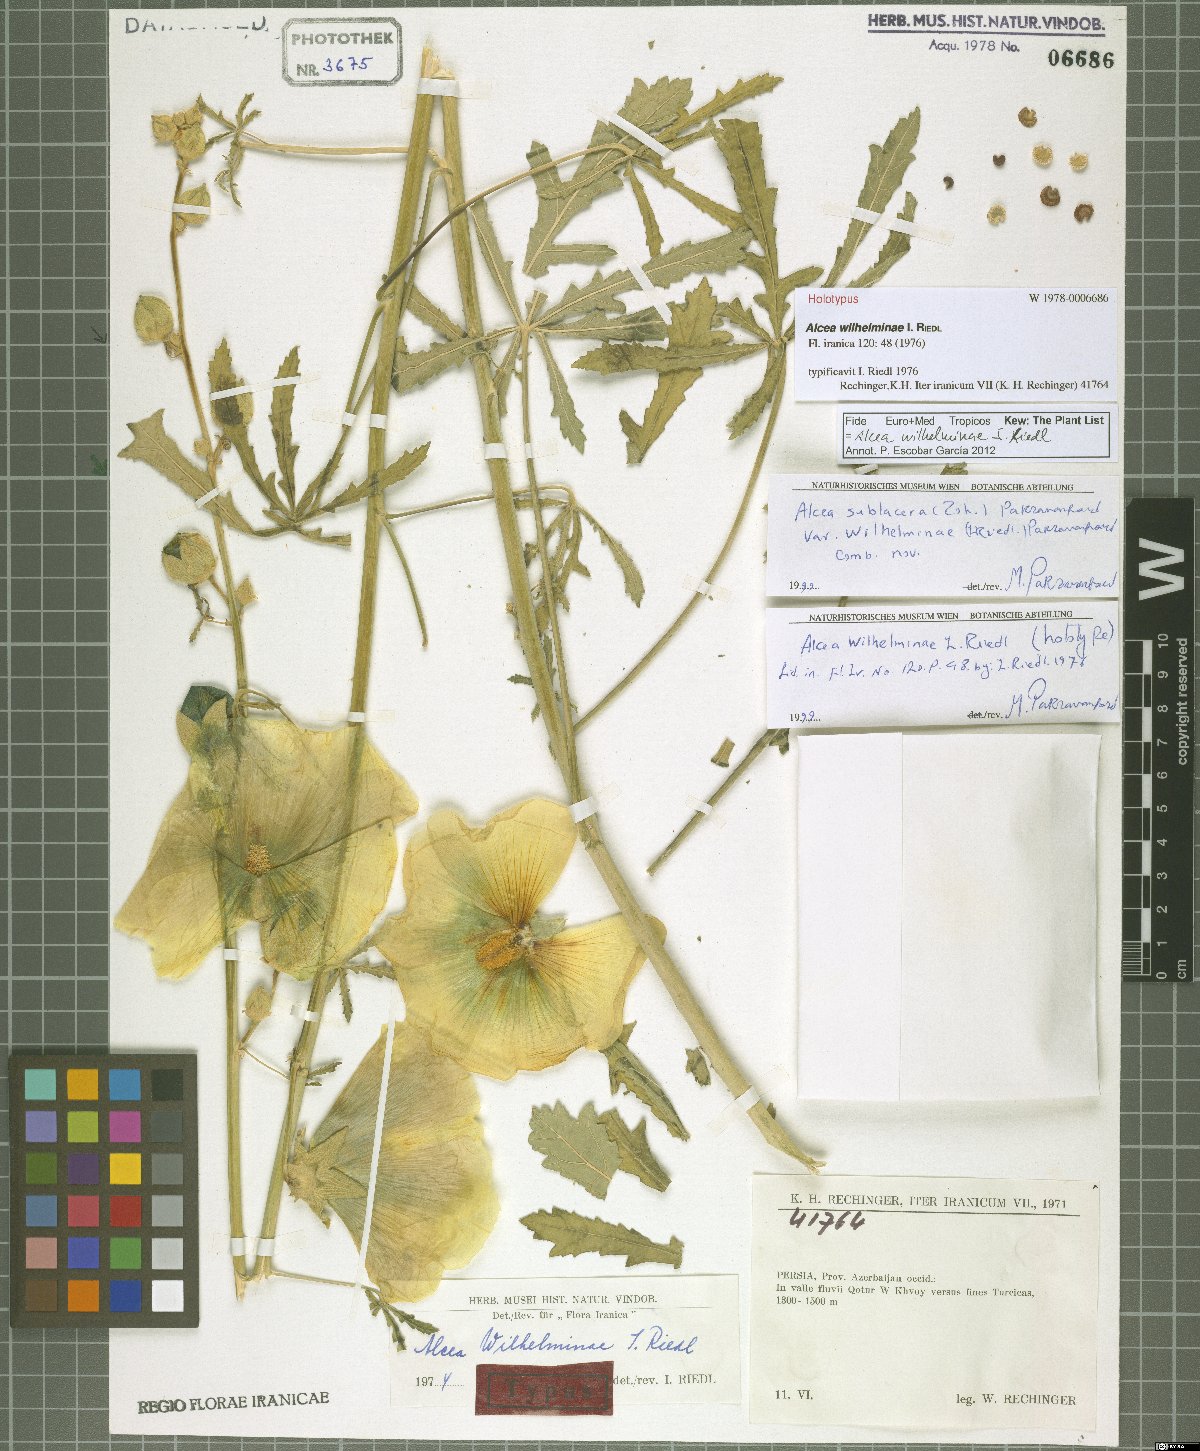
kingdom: Plantae
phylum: Tracheophyta
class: Magnoliopsida
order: Malvales
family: Malvaceae
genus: Alcea
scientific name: Alcea wilhelminae
